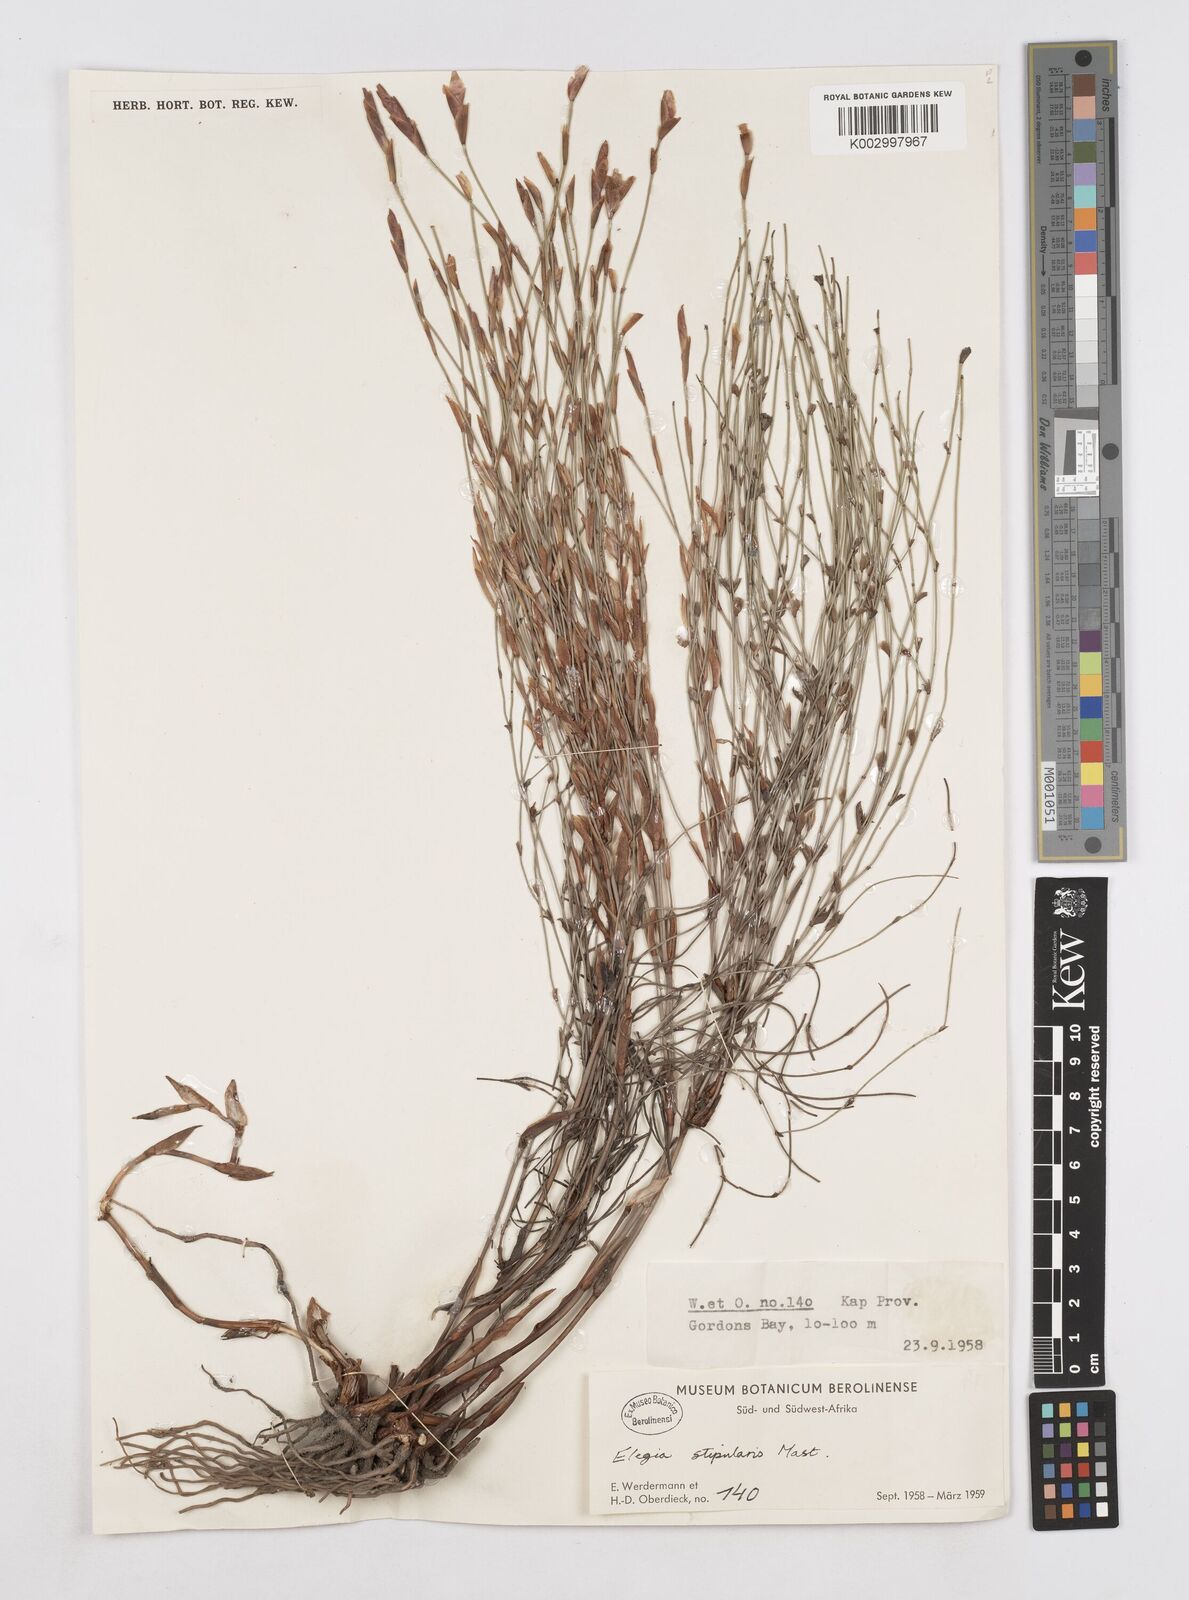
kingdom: Plantae
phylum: Tracheophyta
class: Liliopsida
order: Poales
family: Restionaceae
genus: Elegia
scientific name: Elegia stipularis
